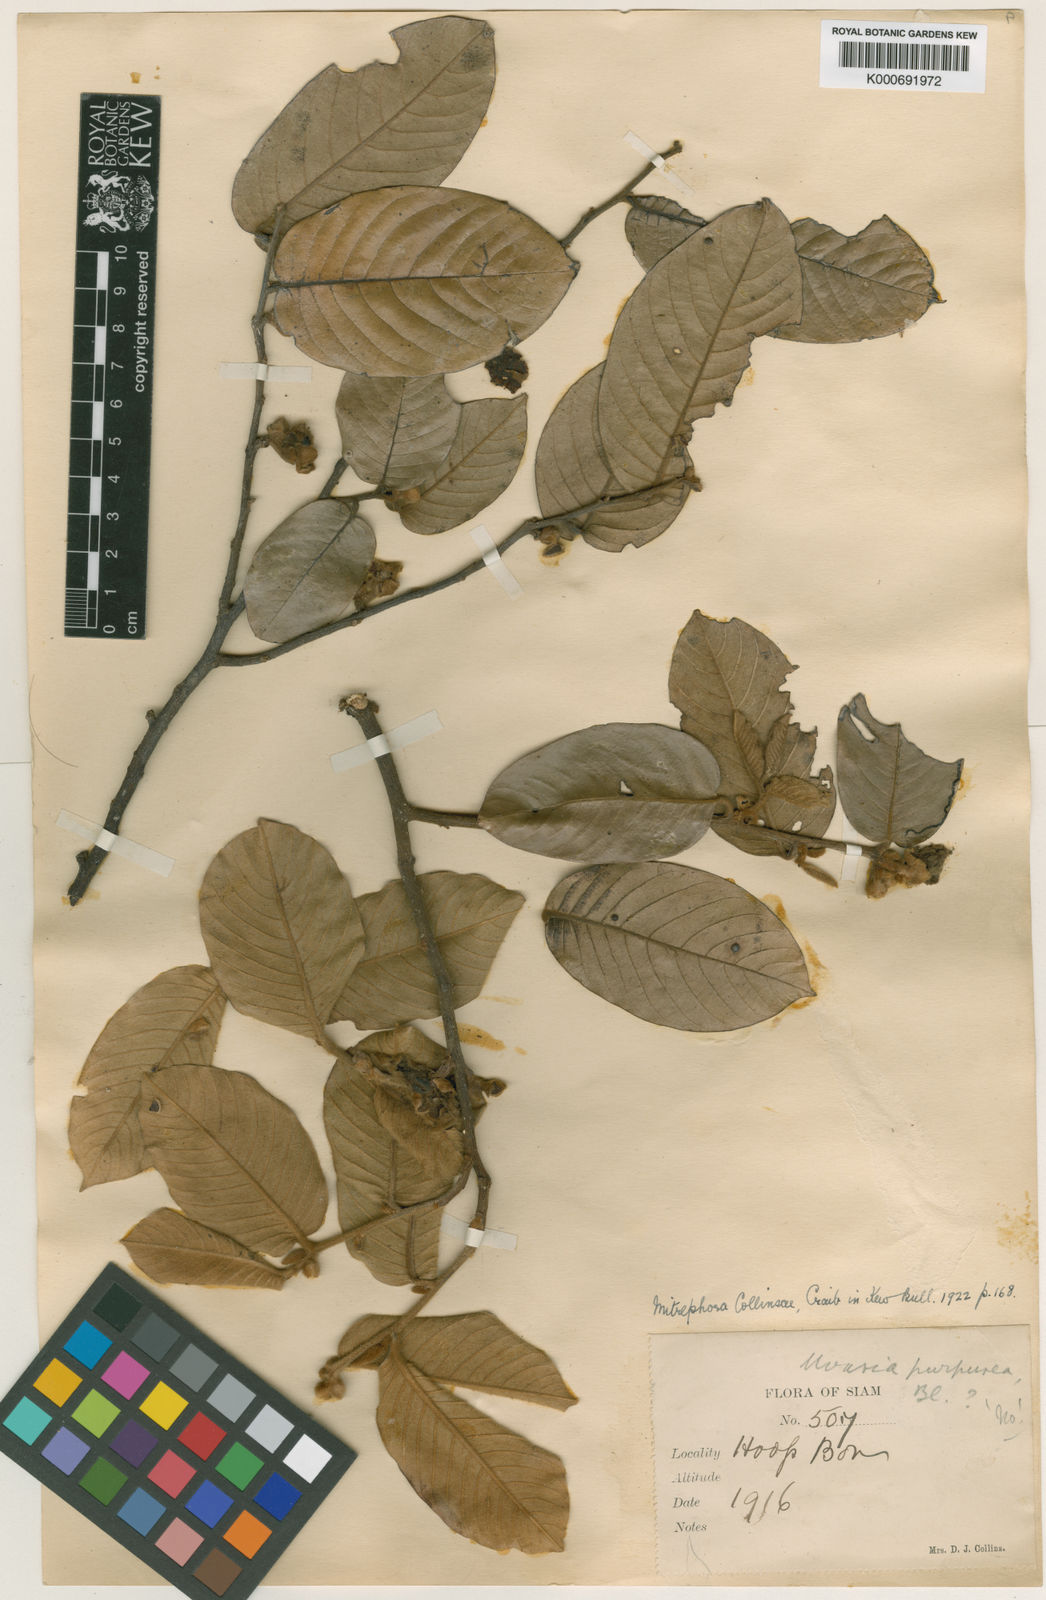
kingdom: Plantae
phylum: Tracheophyta
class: Magnoliopsida
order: Magnoliales
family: Annonaceae
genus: Mitrephora
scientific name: Mitrephora tomentosa
